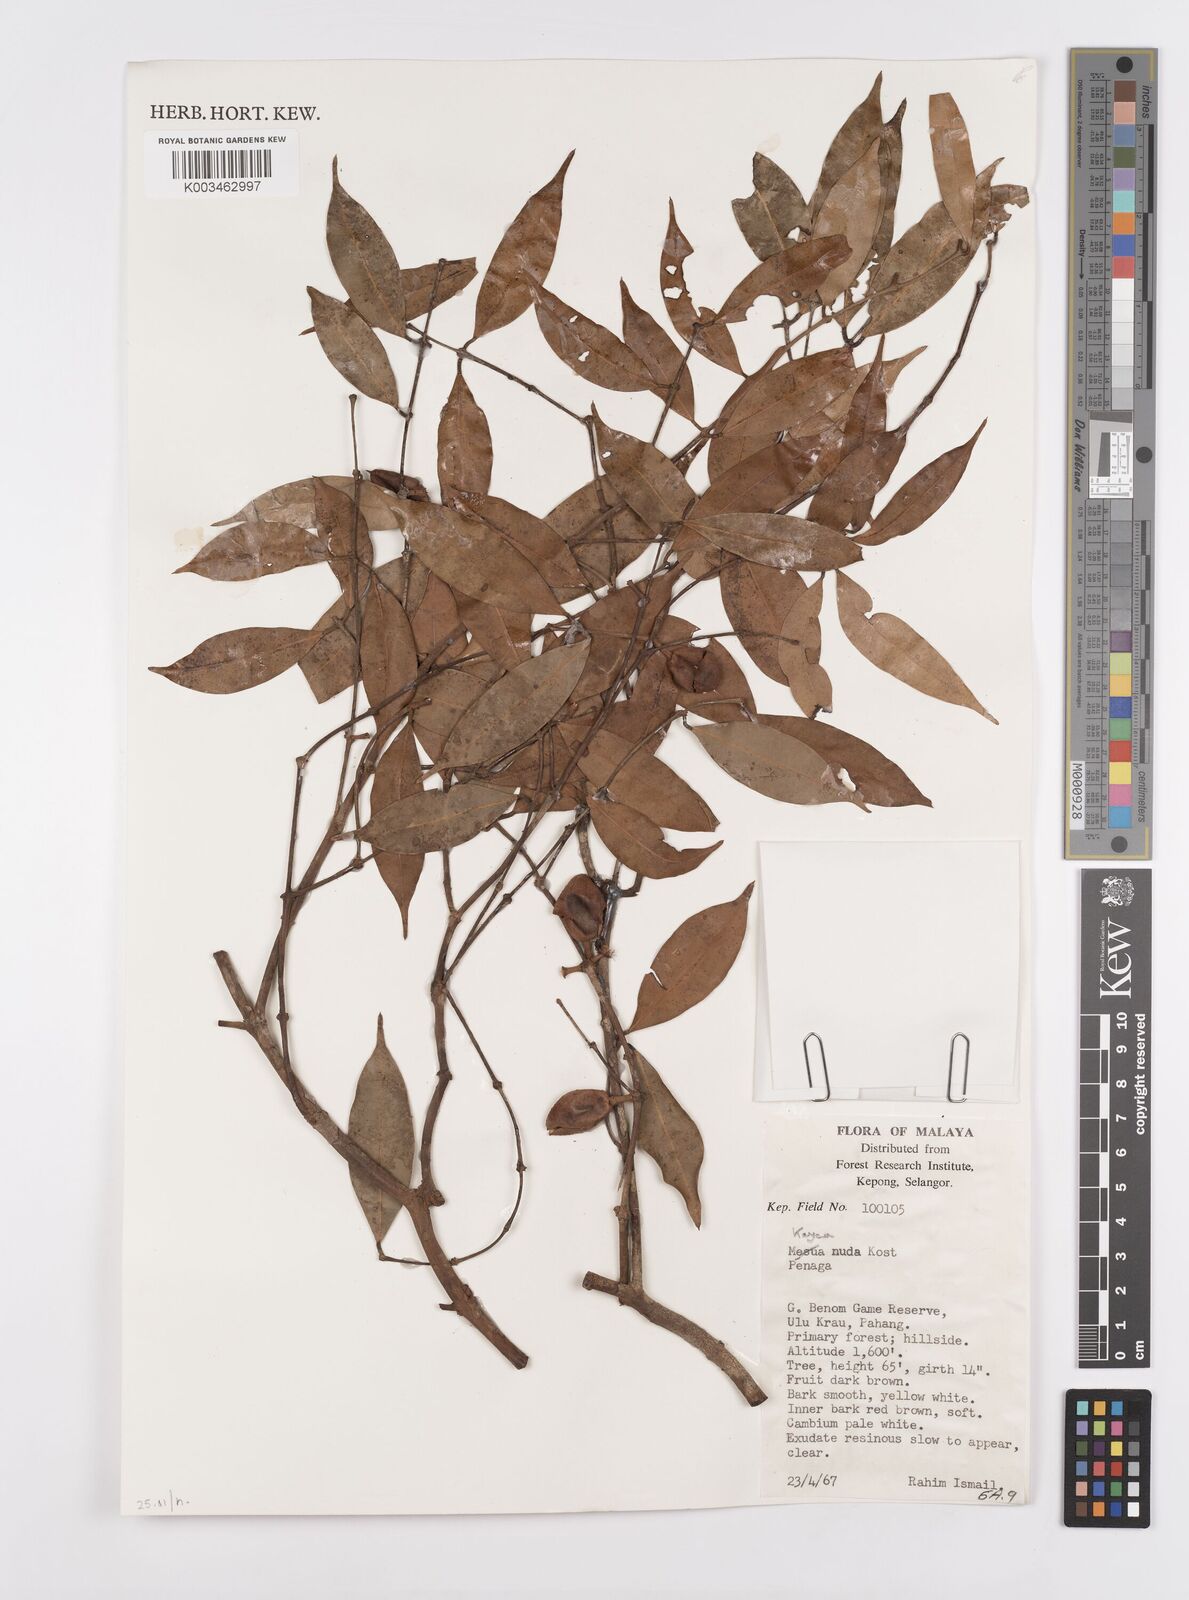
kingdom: Plantae
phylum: Tracheophyta
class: Magnoliopsida
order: Malpighiales
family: Calophyllaceae
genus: Kayea
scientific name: Kayea
